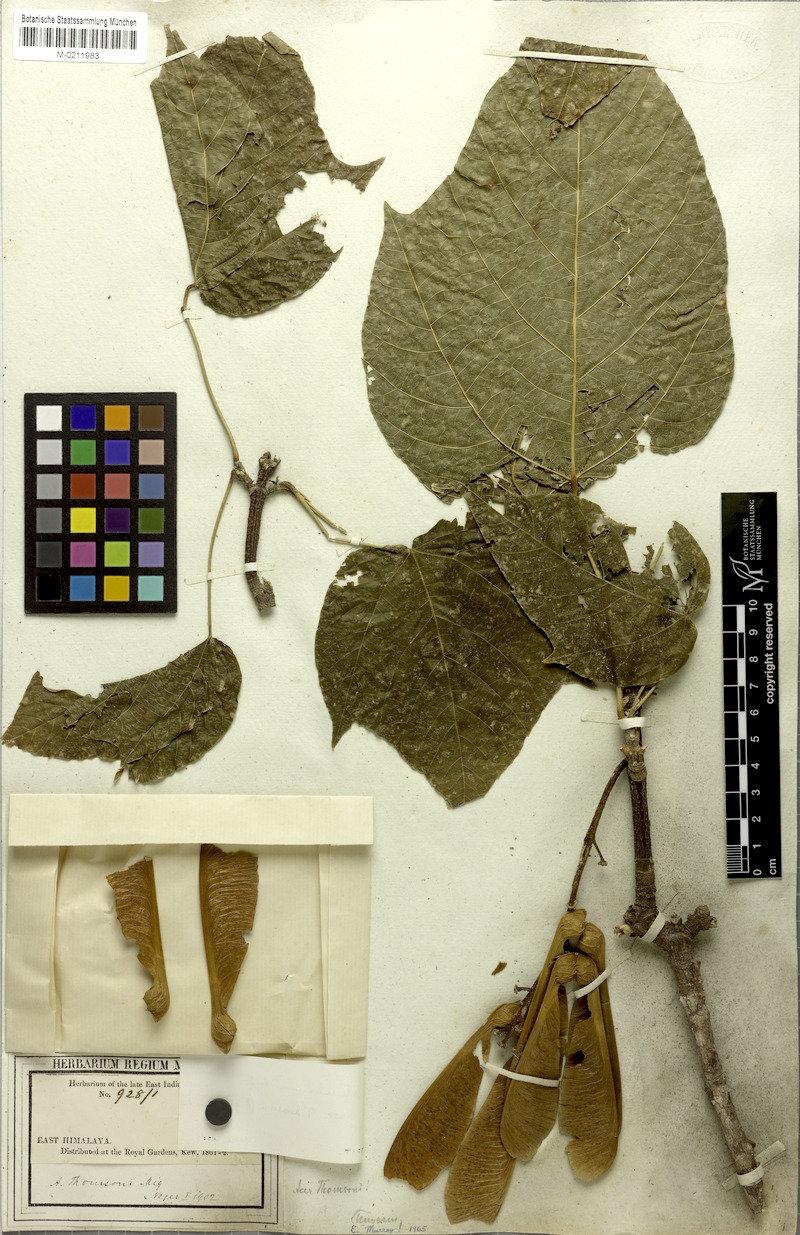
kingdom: Plantae
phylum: Tracheophyta
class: Magnoliopsida
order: Sapindales
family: Sapindaceae
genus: Acer
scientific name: Acer thomsonii
